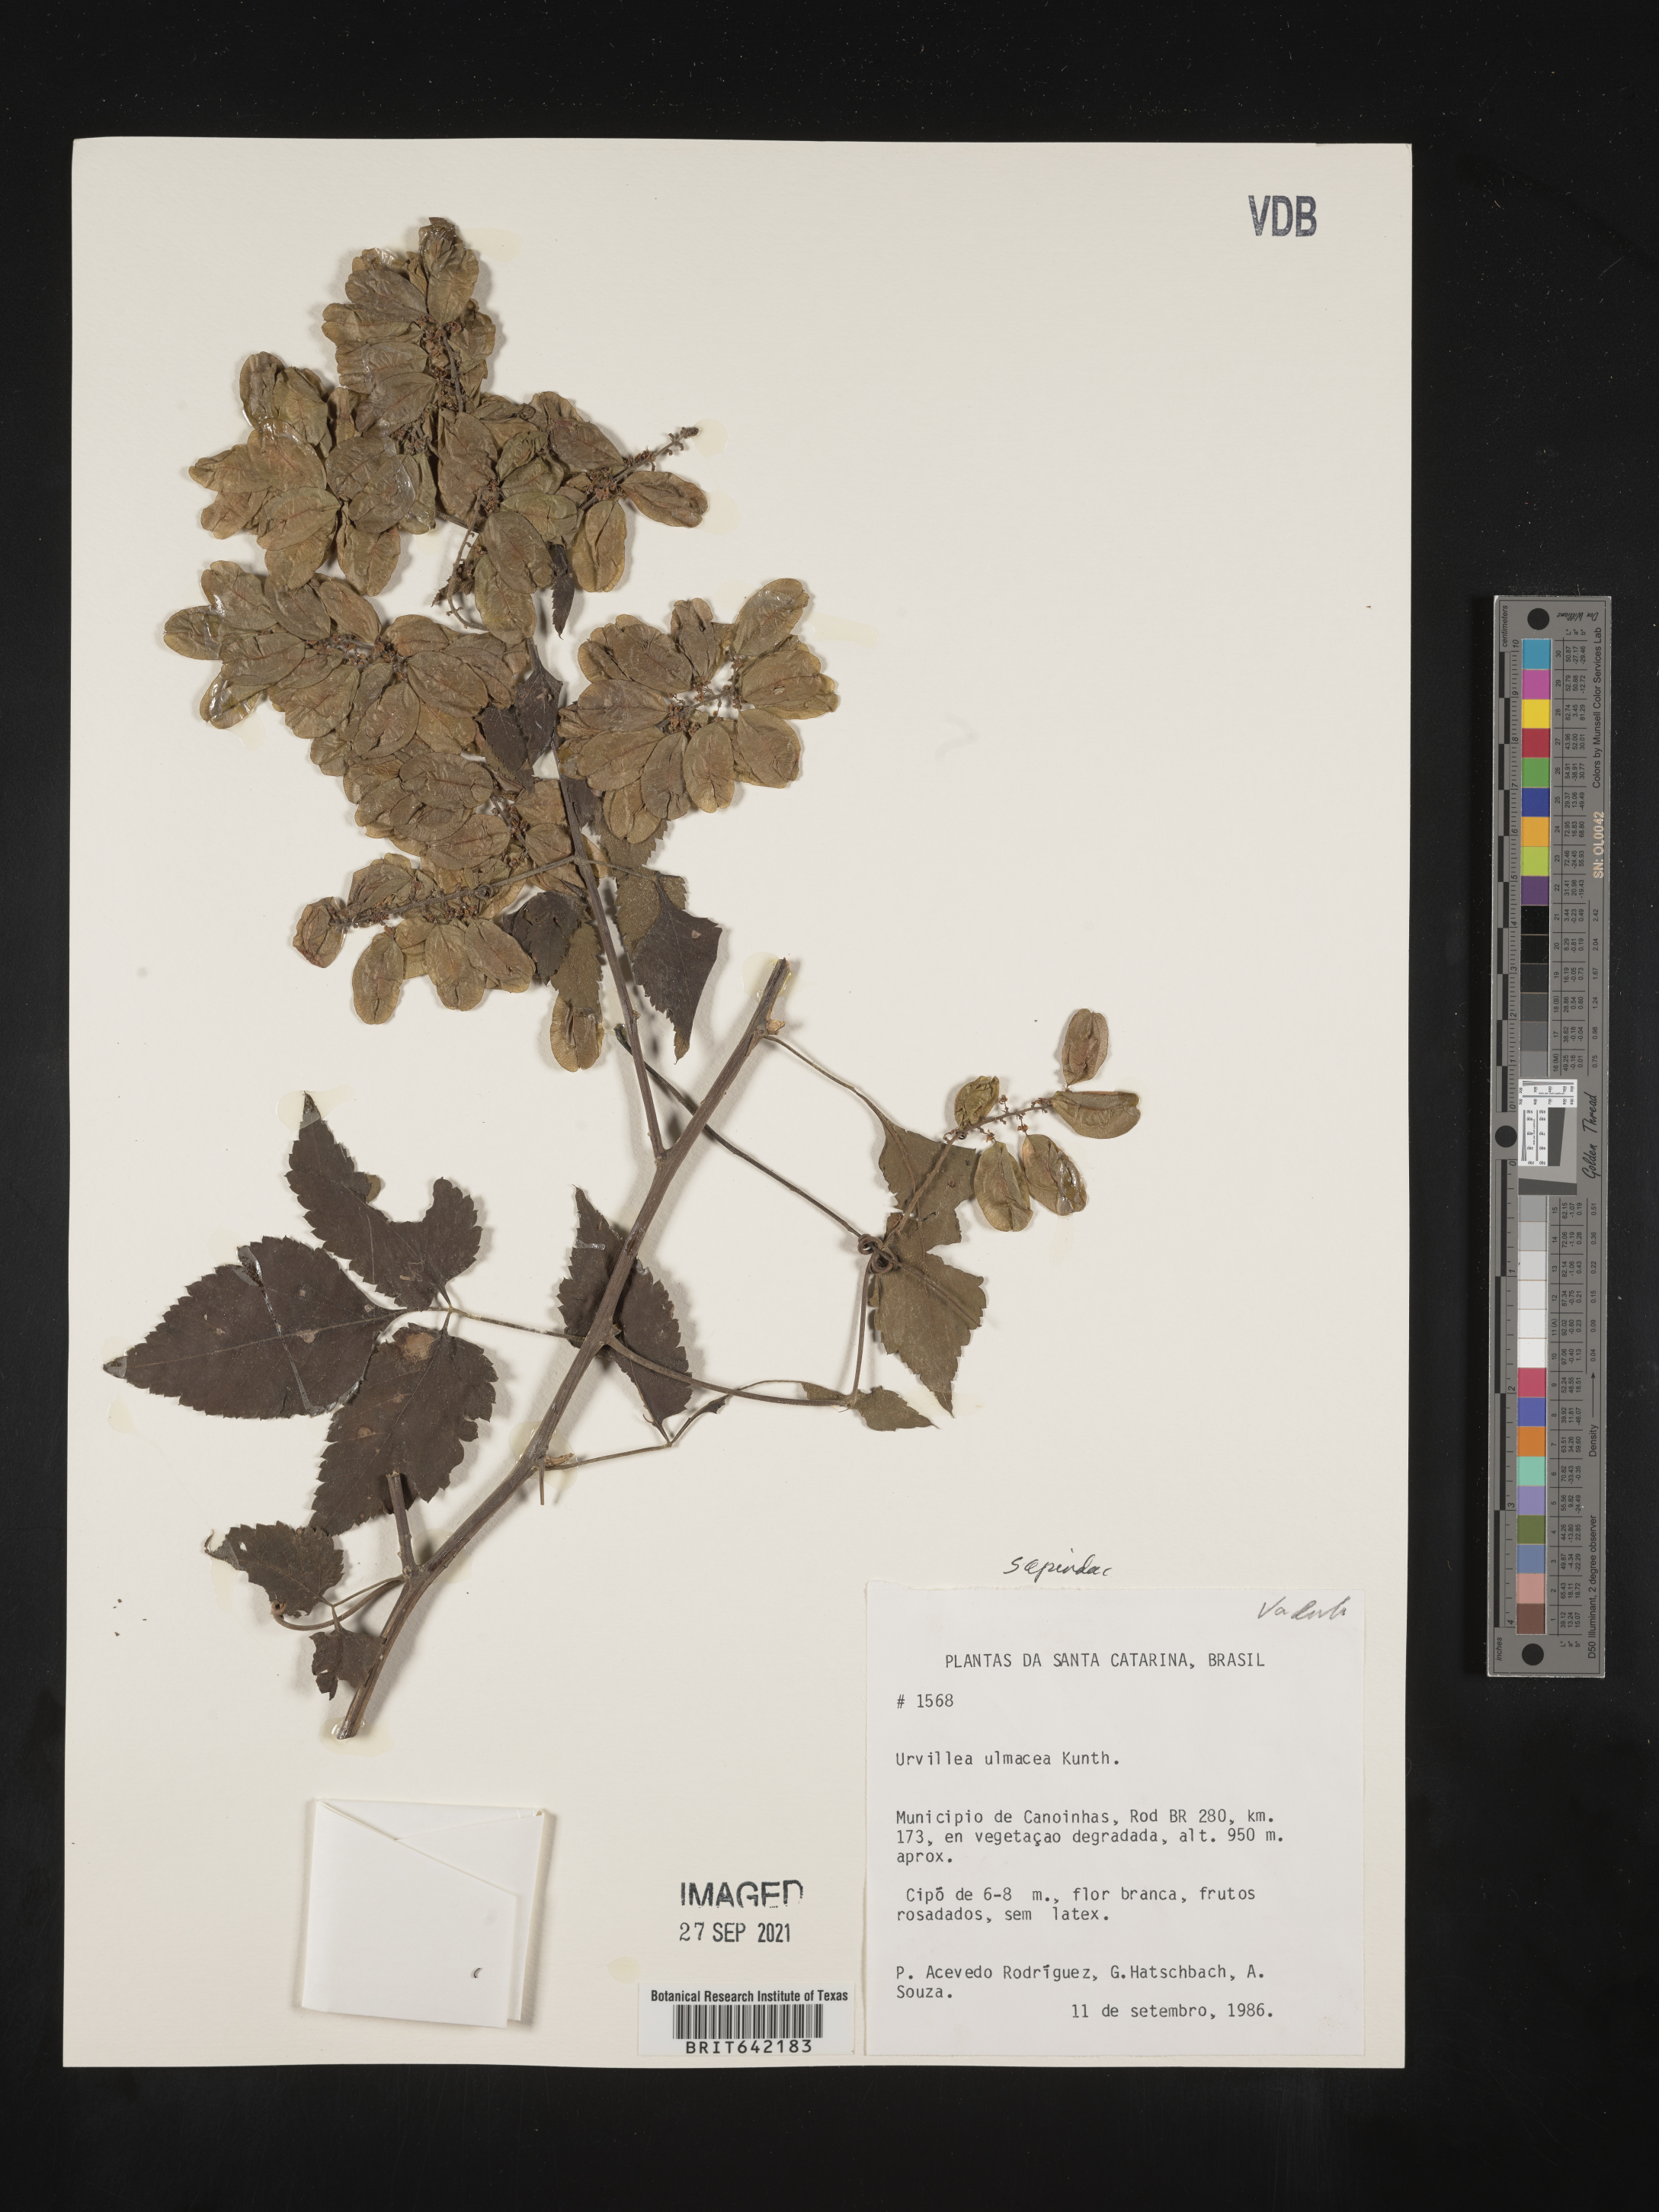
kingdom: Plantae
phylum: Tracheophyta
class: Magnoliopsida
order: Sapindales
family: Sapindaceae
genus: Urvillea
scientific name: Urvillea
